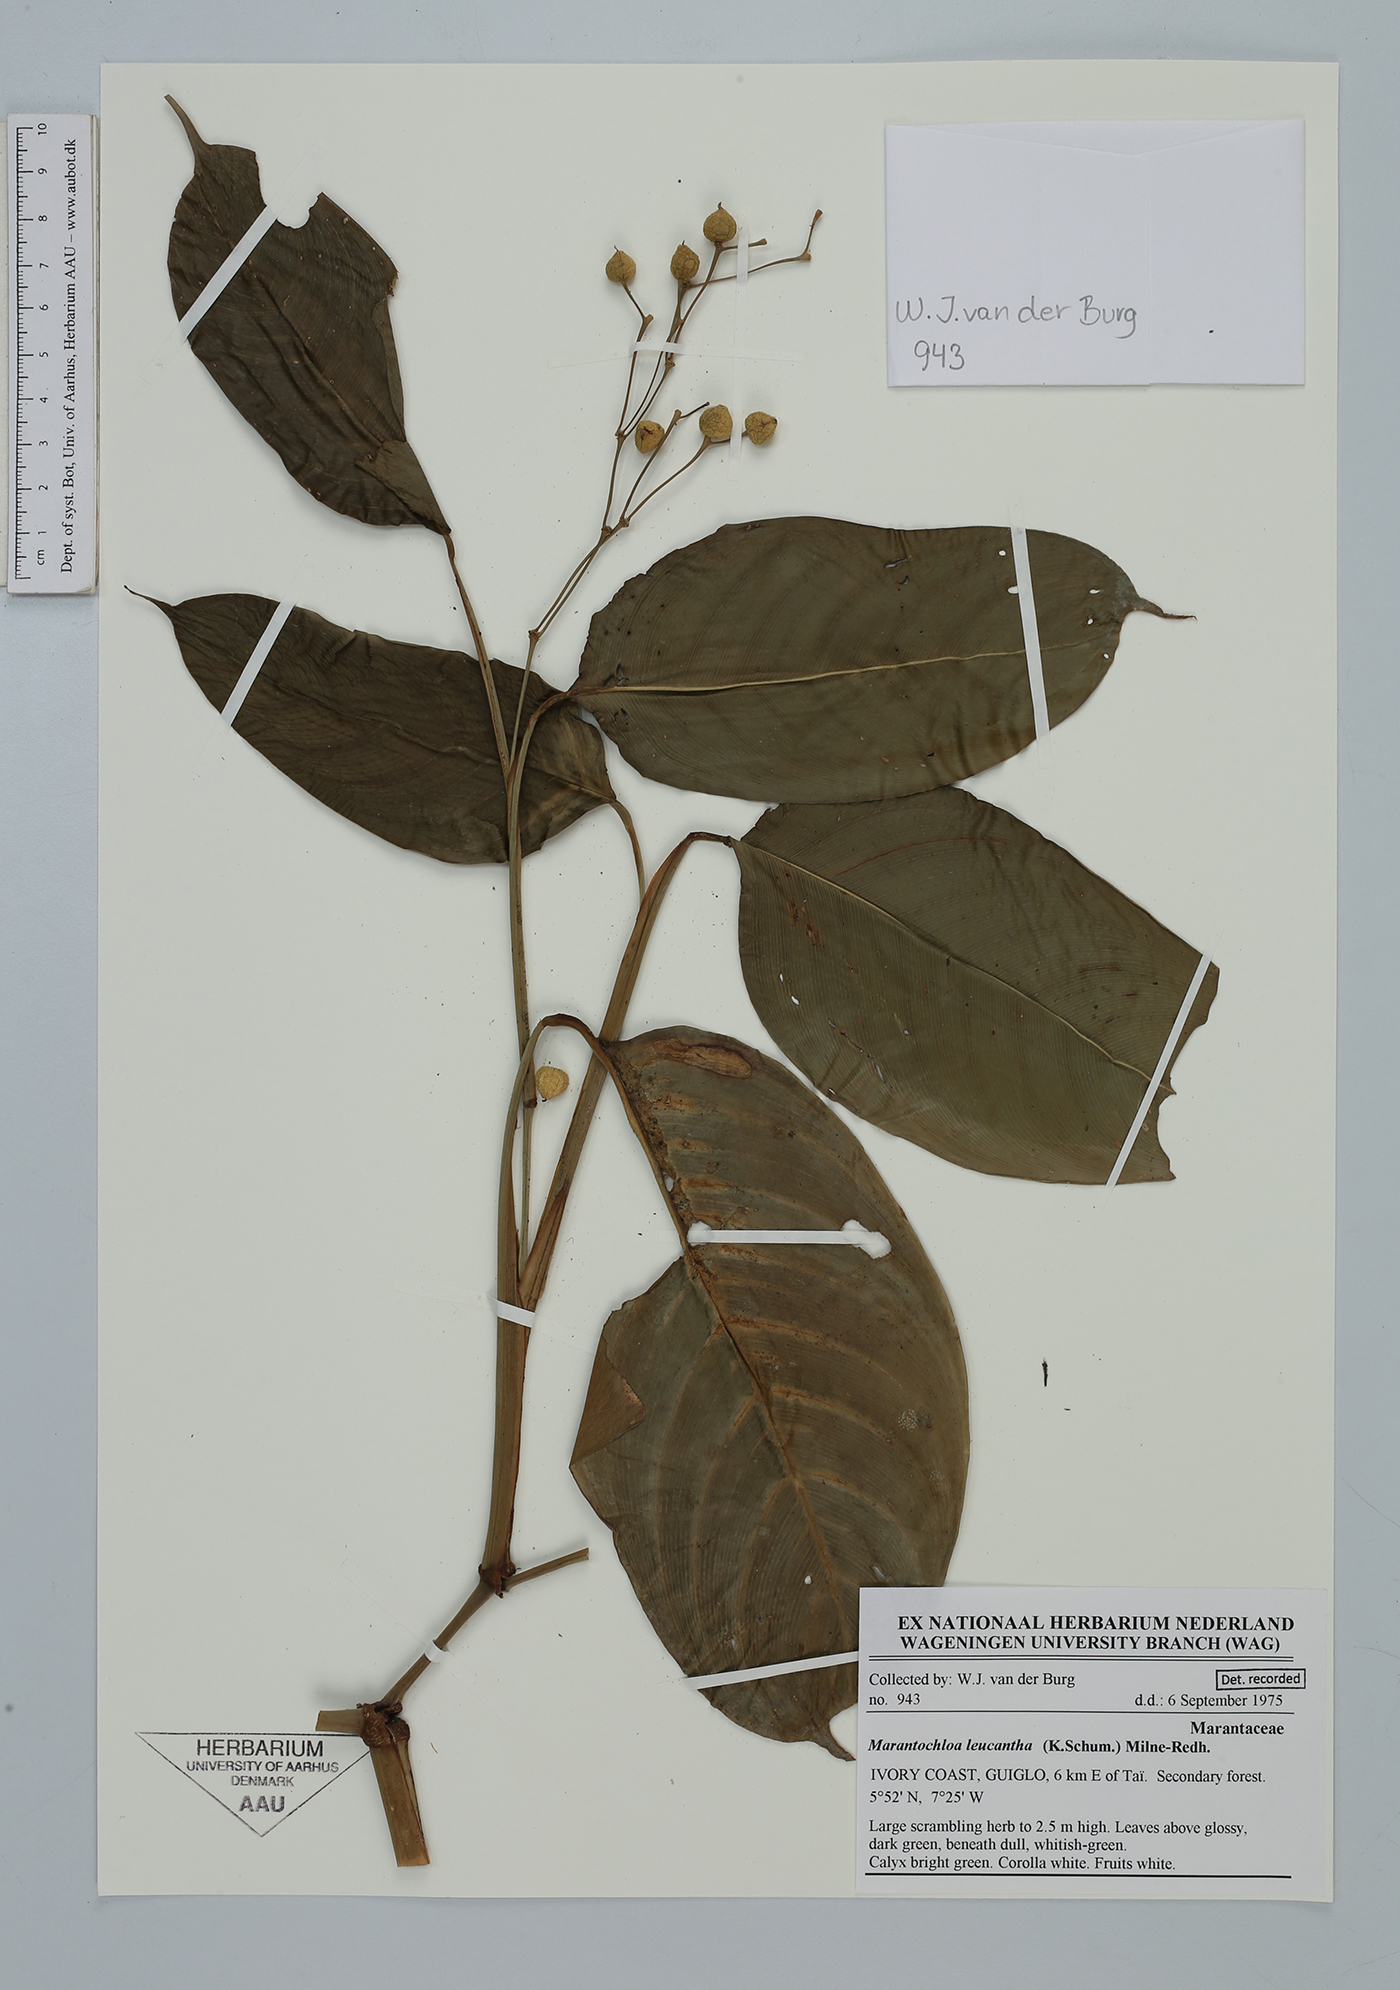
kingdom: Plantae
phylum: Tracheophyta
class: Liliopsida
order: Zingiberales
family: Marantaceae
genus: Marantochloa
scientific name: Marantochloa leucantha
